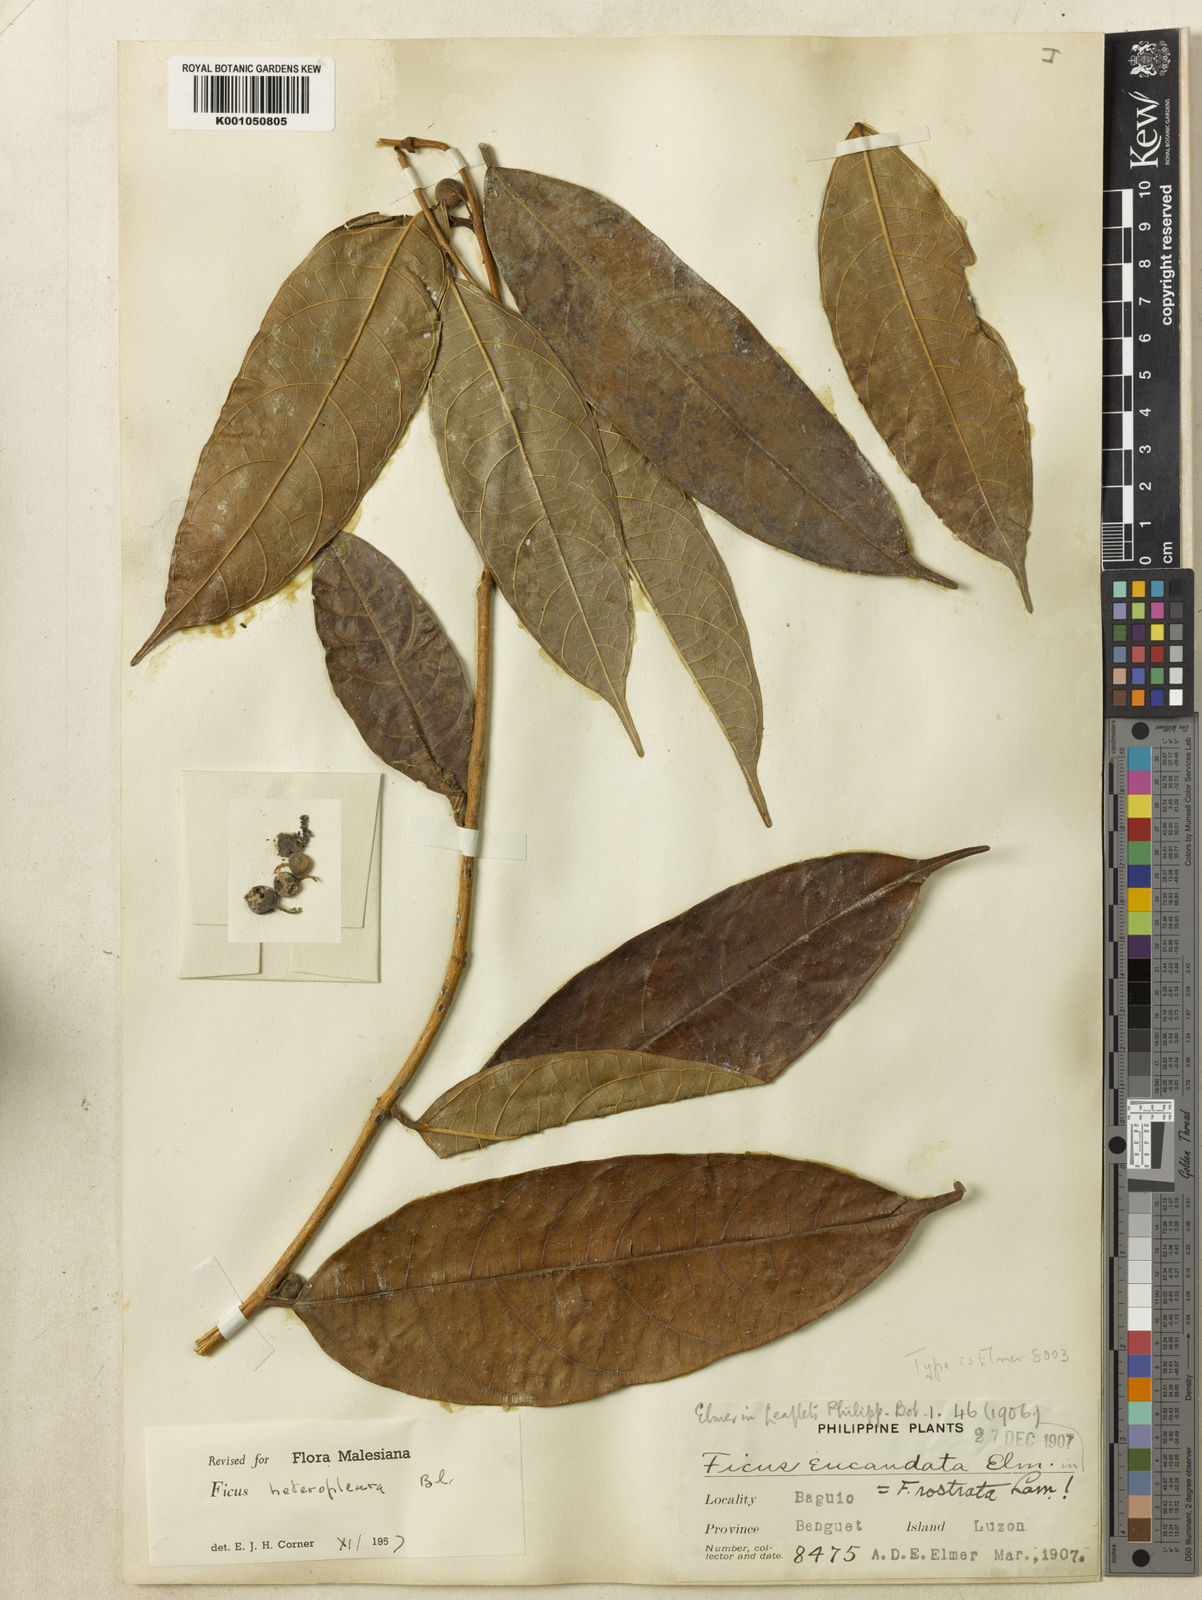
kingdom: Plantae
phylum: Tracheophyta
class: Magnoliopsida
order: Rosales
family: Moraceae
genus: Ficus
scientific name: Ficus heteropleura
